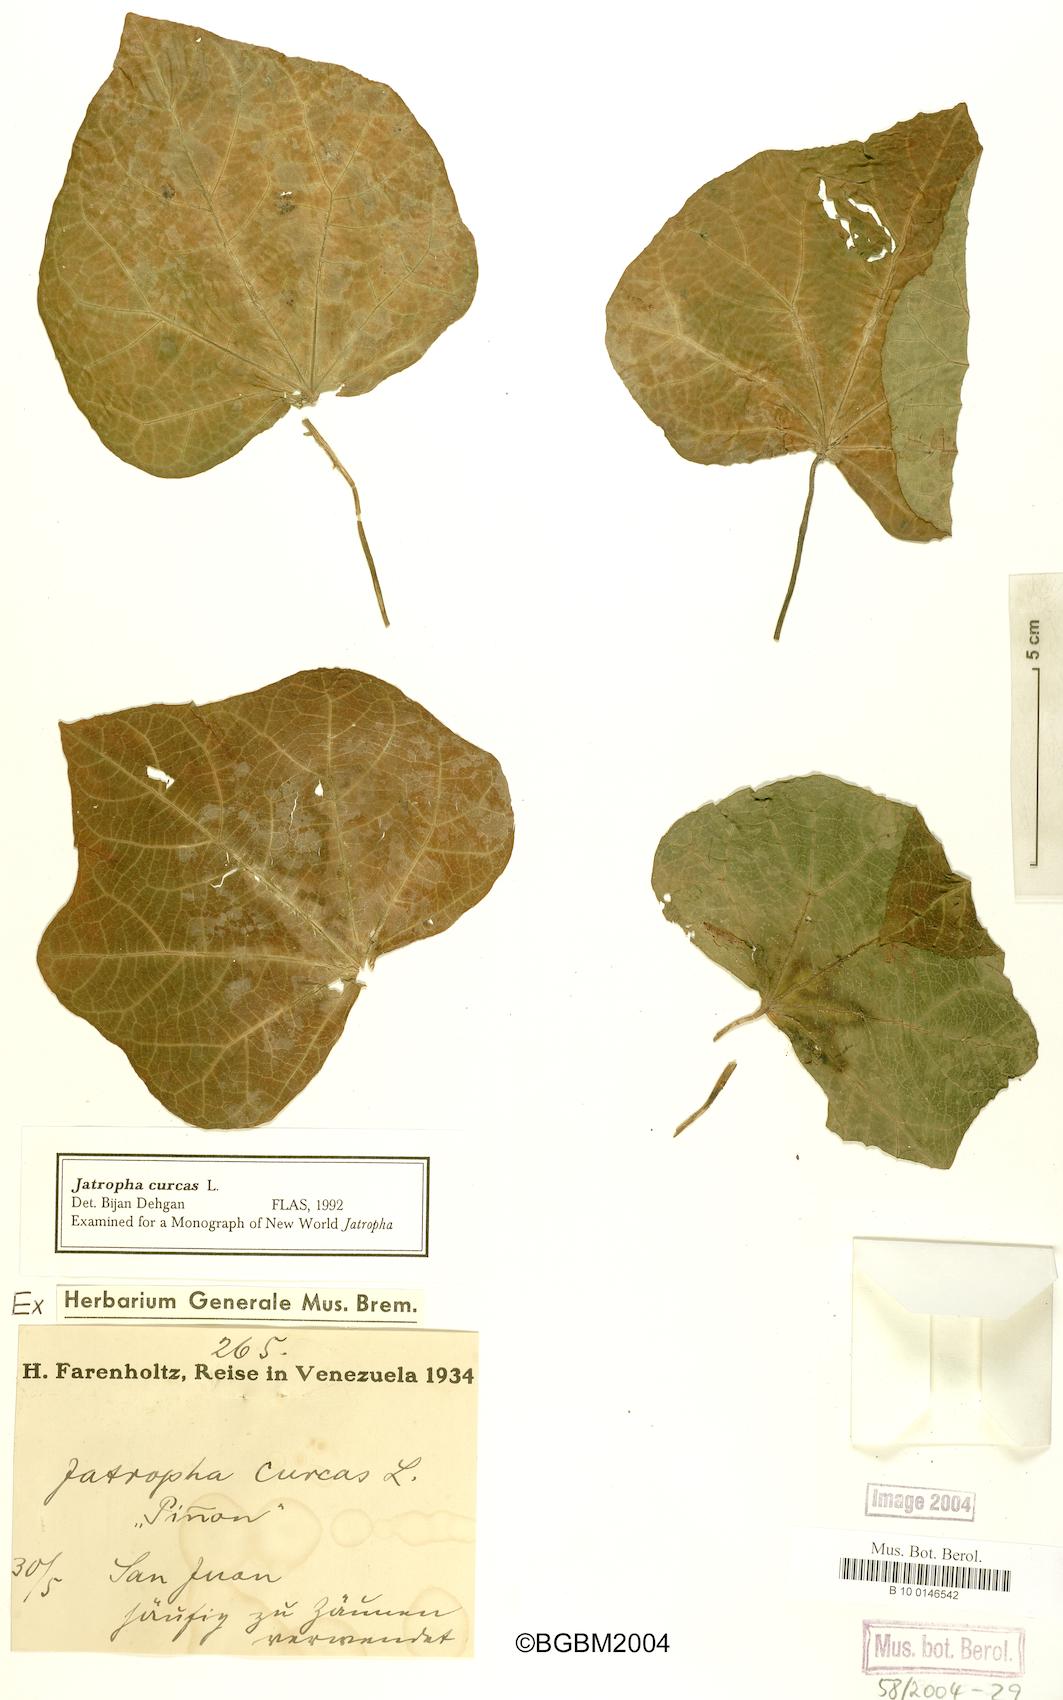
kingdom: Plantae
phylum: Tracheophyta
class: Magnoliopsida
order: Malpighiales
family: Euphorbiaceae
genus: Jatropha
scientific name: Jatropha curcas
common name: Barbados nut
